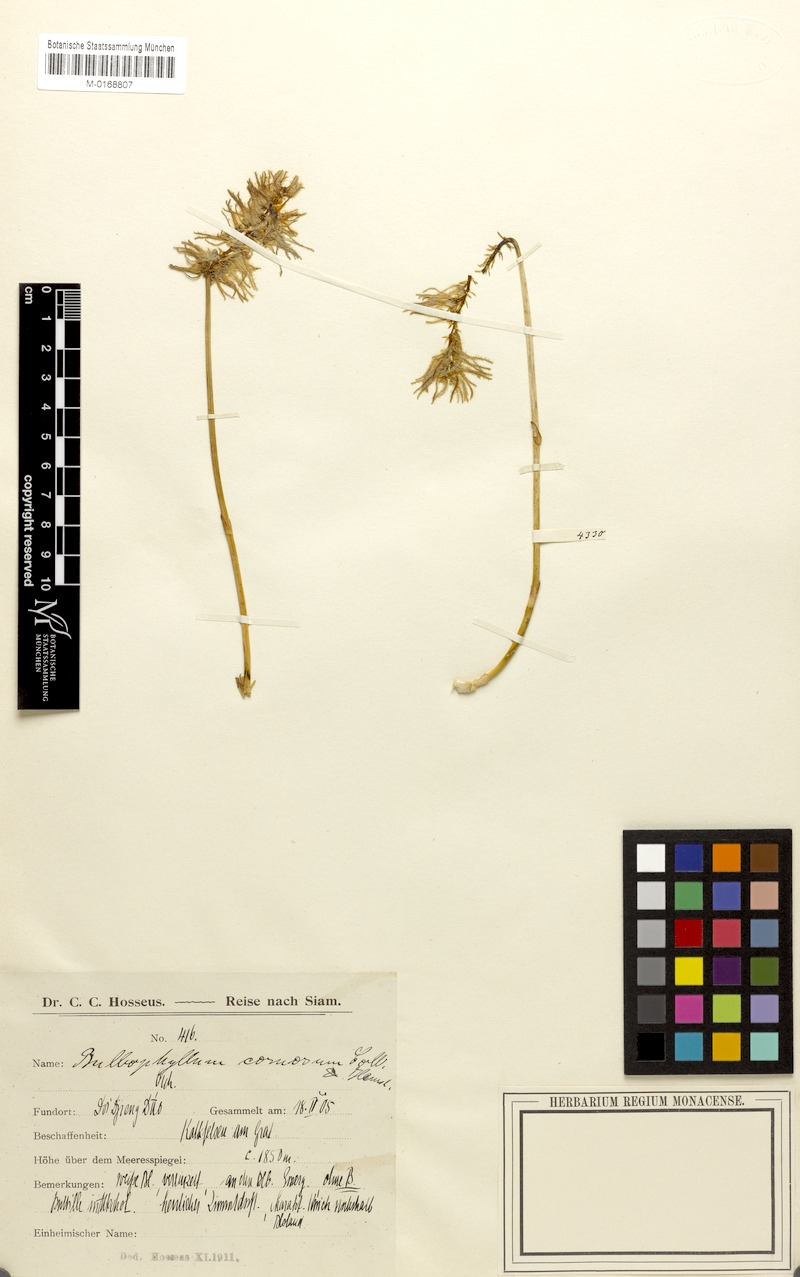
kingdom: Plantae
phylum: Tracheophyta
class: Liliopsida
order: Asparagales
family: Orchidaceae
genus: Bulbophyllum
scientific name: Bulbophyllum comosum
